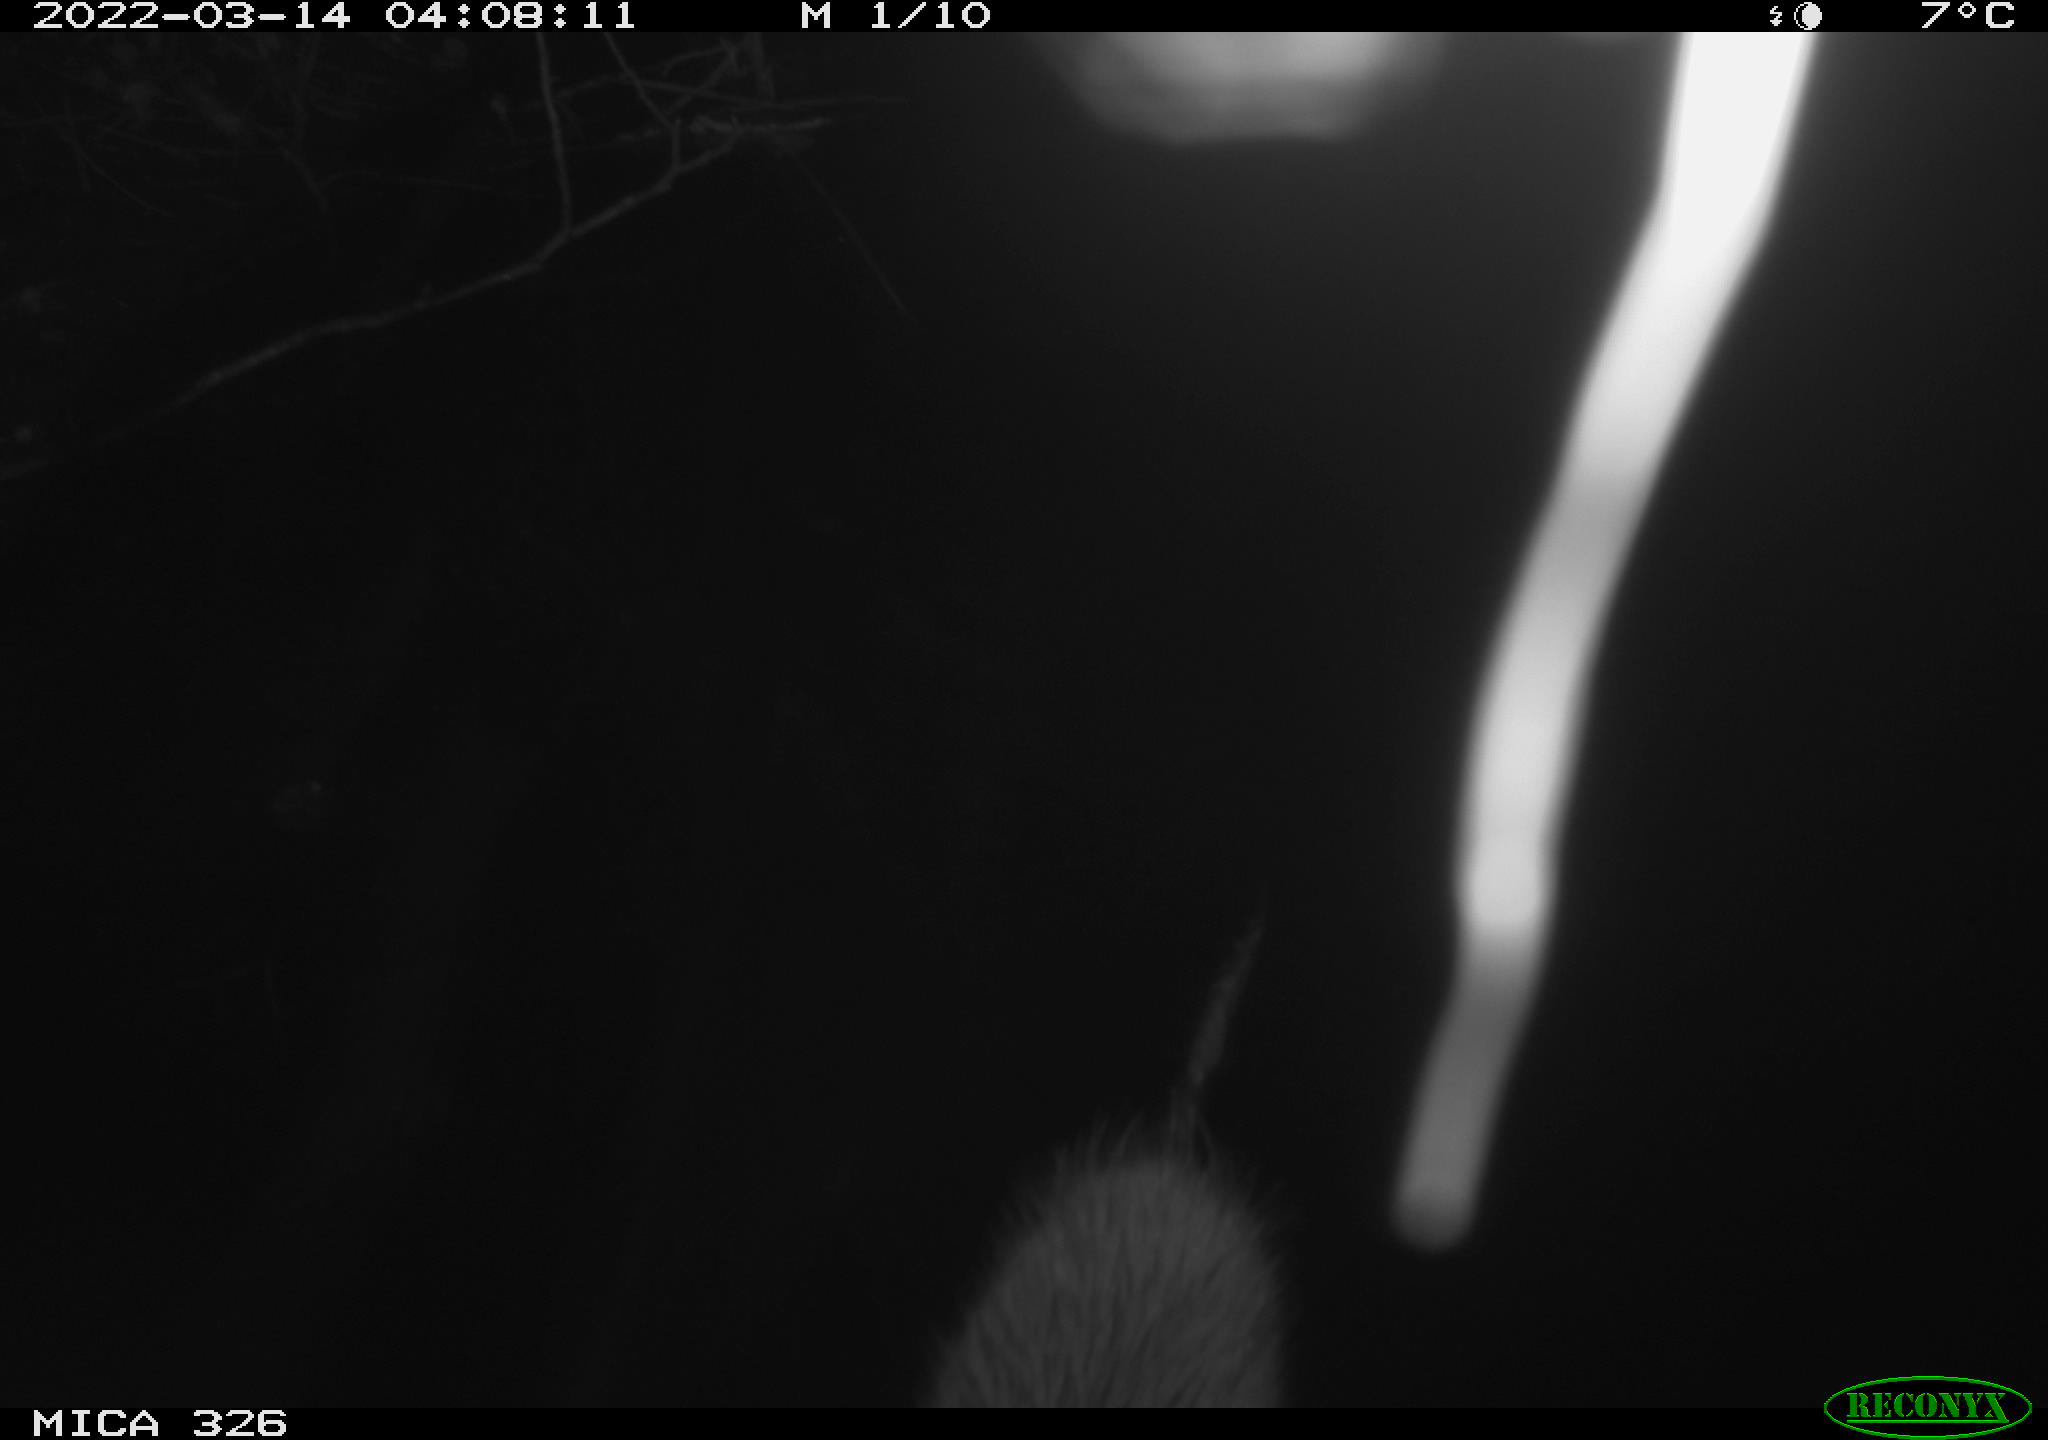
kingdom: Animalia
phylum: Chordata
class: Mammalia
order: Rodentia
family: Cricetidae
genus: Ondatra
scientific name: Ondatra zibethicus
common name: Muskrat
